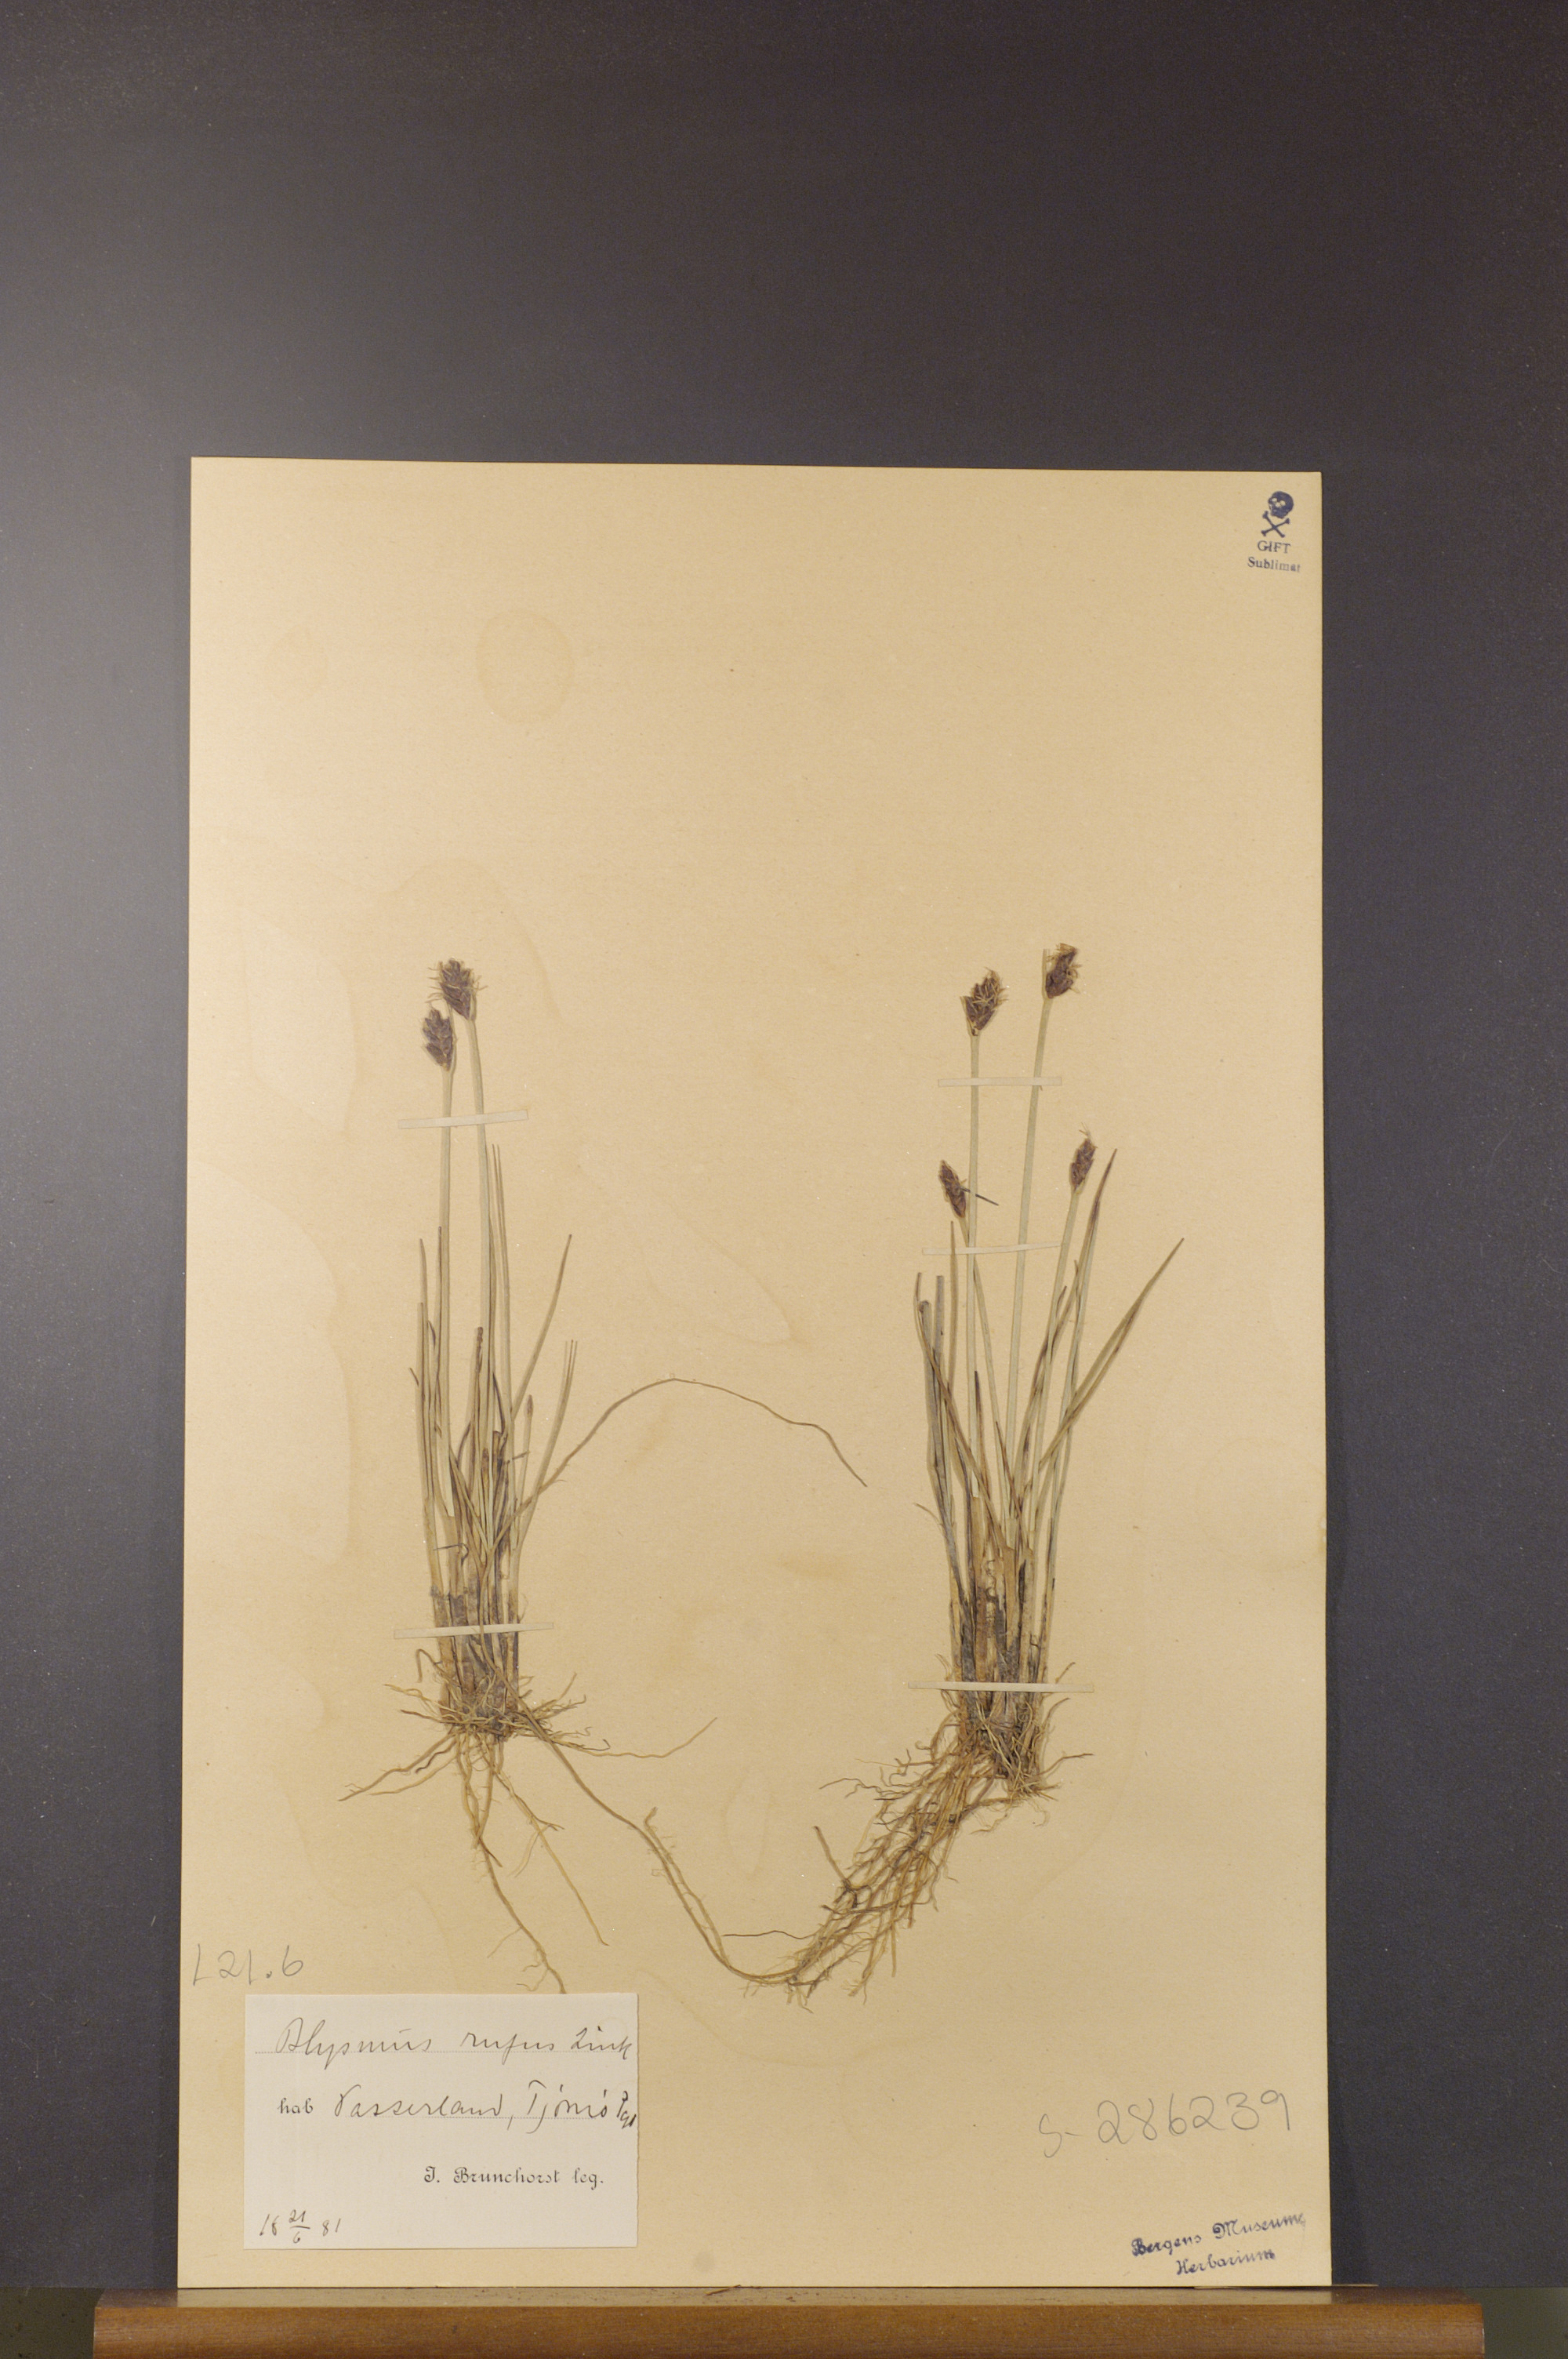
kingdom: Plantae
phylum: Tracheophyta
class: Liliopsida
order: Poales
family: Cyperaceae
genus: Blysmus
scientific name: Blysmus rufus
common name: Saltmarsh flat-sedge
